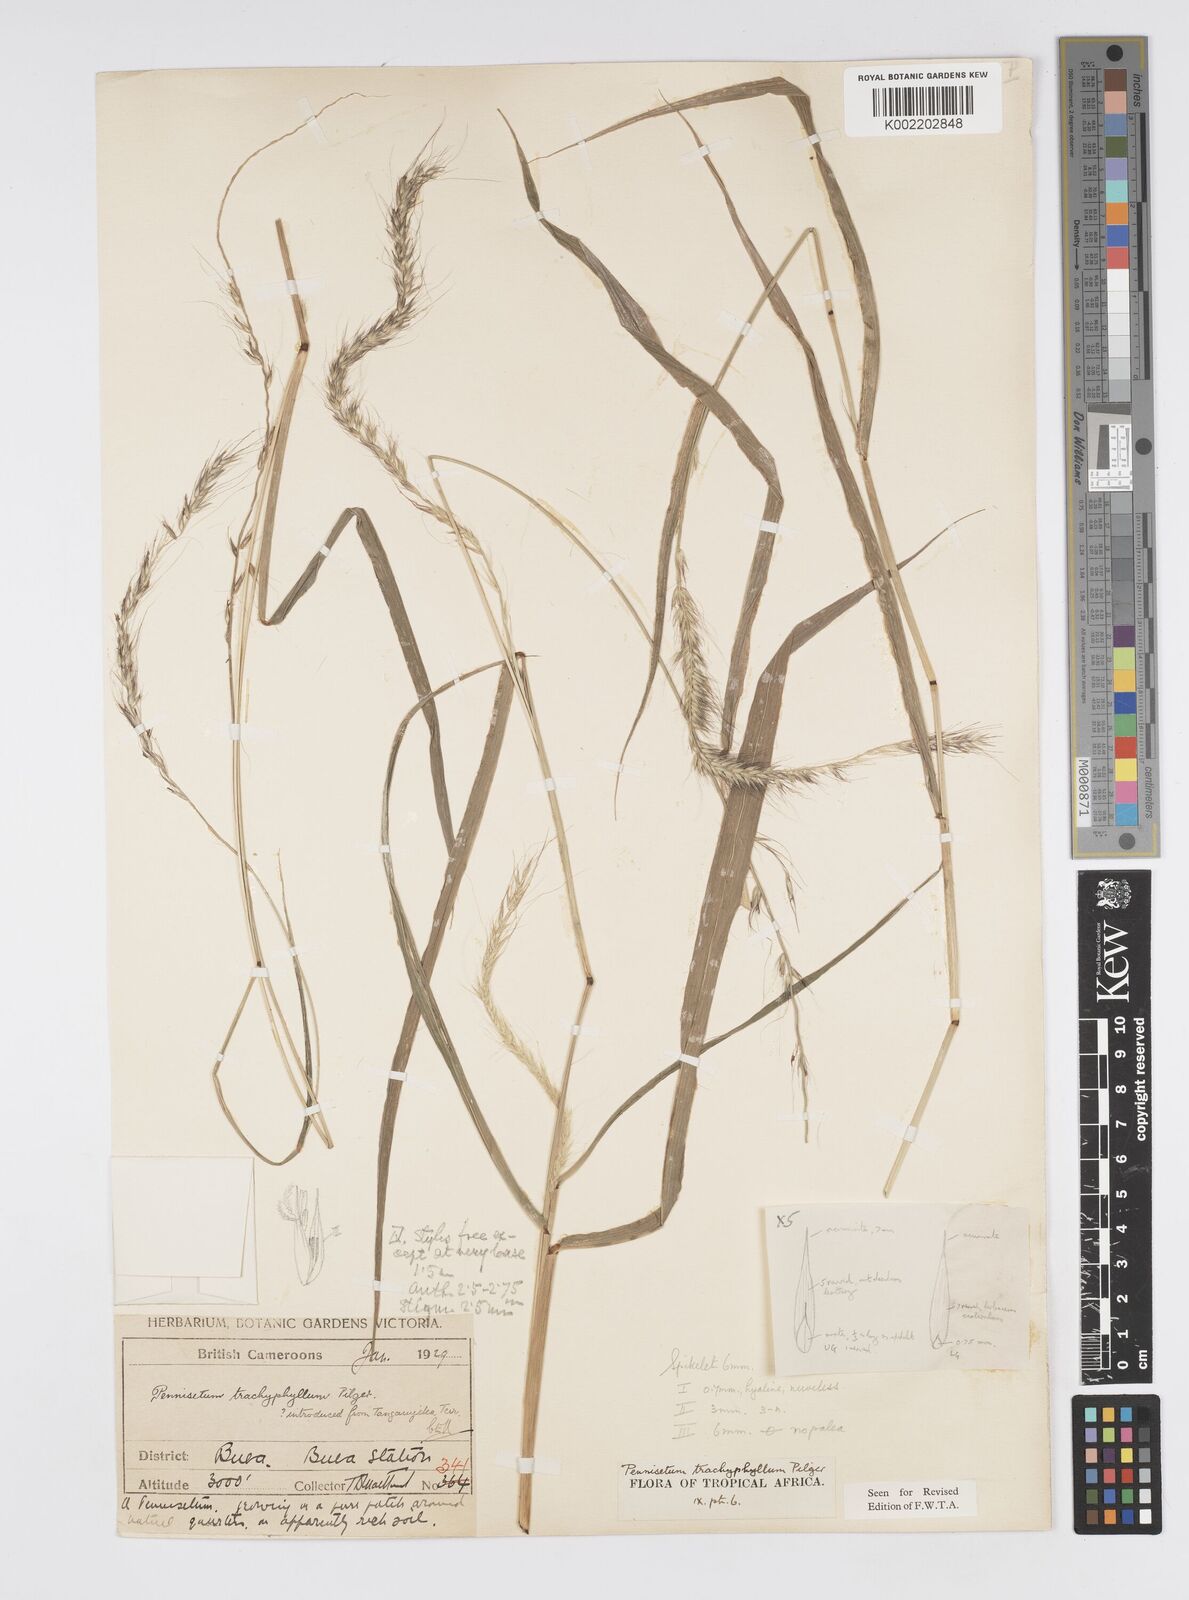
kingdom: Plantae
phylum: Tracheophyta
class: Liliopsida
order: Poales
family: Poaceae
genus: Cenchrus
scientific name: Cenchrus trachyphyllus
